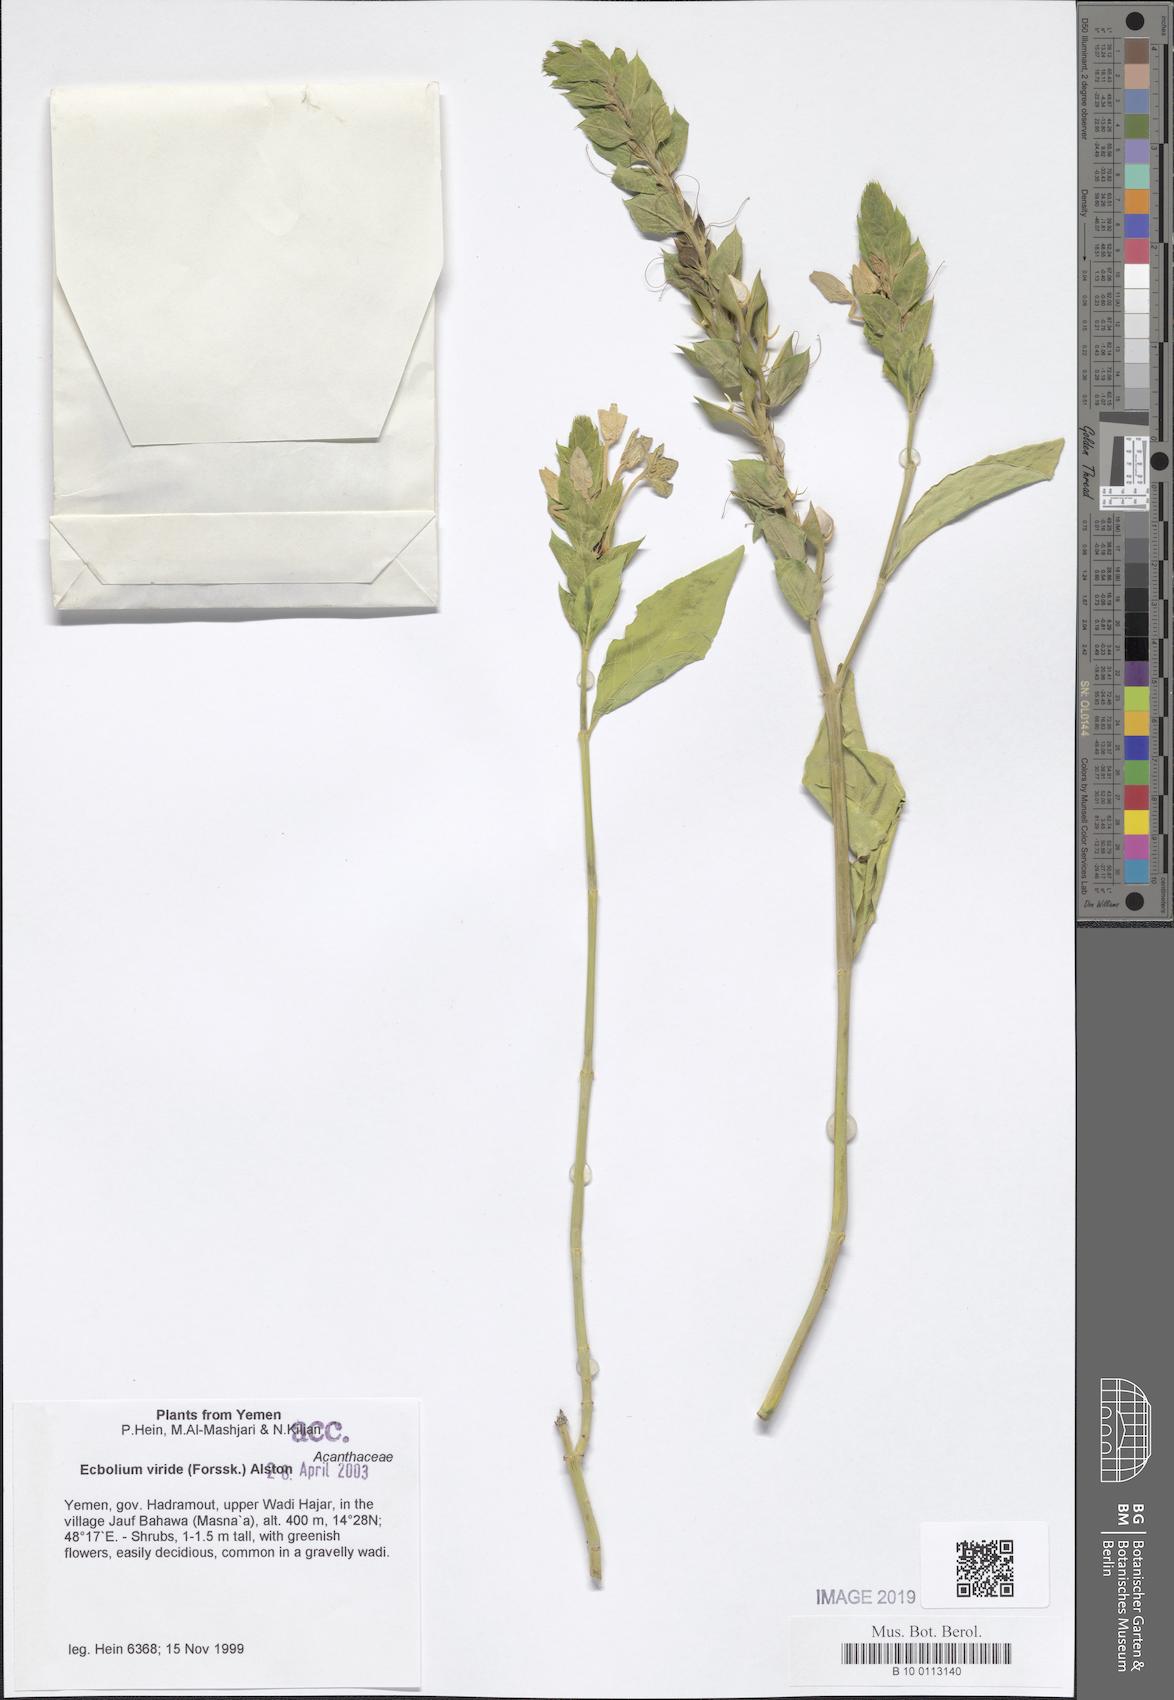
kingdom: Plantae
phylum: Tracheophyta
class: Magnoliopsida
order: Lamiales
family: Acanthaceae
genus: Ecbolium
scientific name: Ecbolium viride
